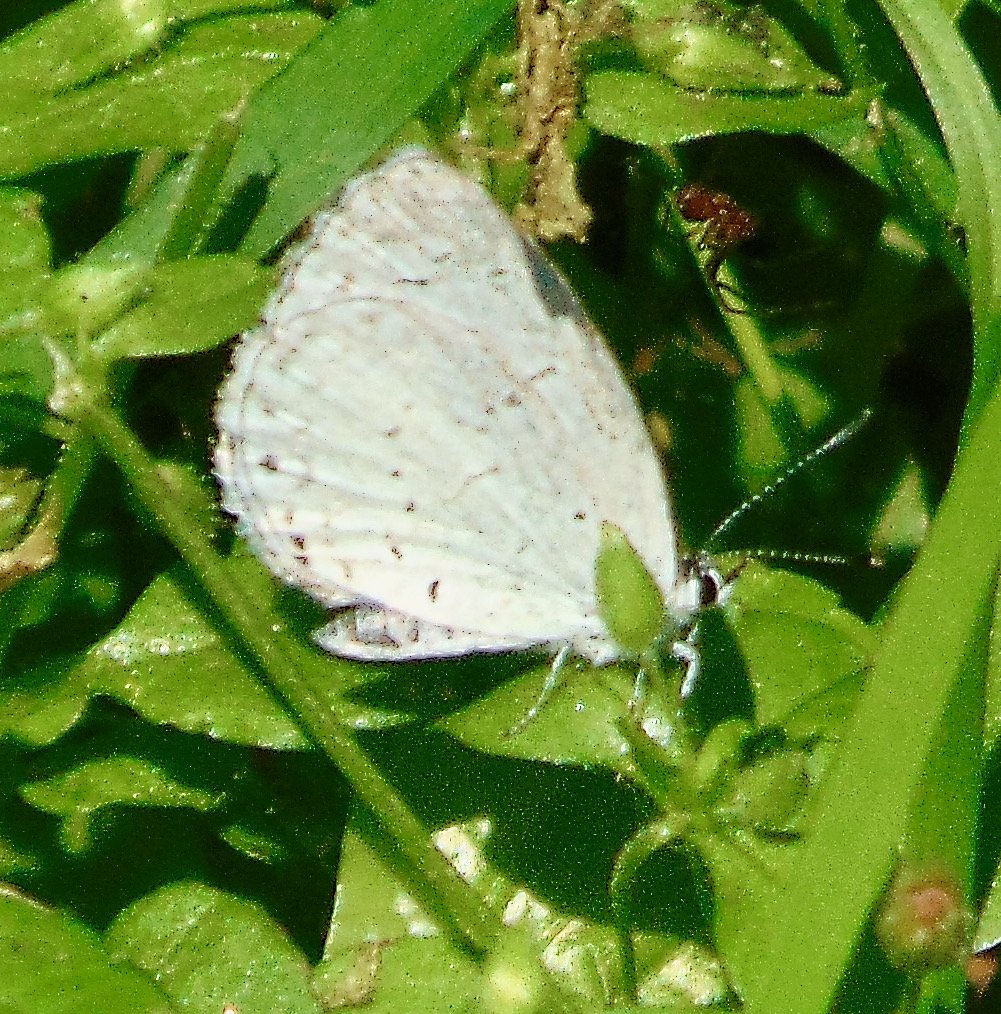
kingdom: Animalia
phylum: Arthropoda
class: Insecta
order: Lepidoptera
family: Lycaenidae
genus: Cyaniris
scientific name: Cyaniris neglecta
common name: Summer Azure
